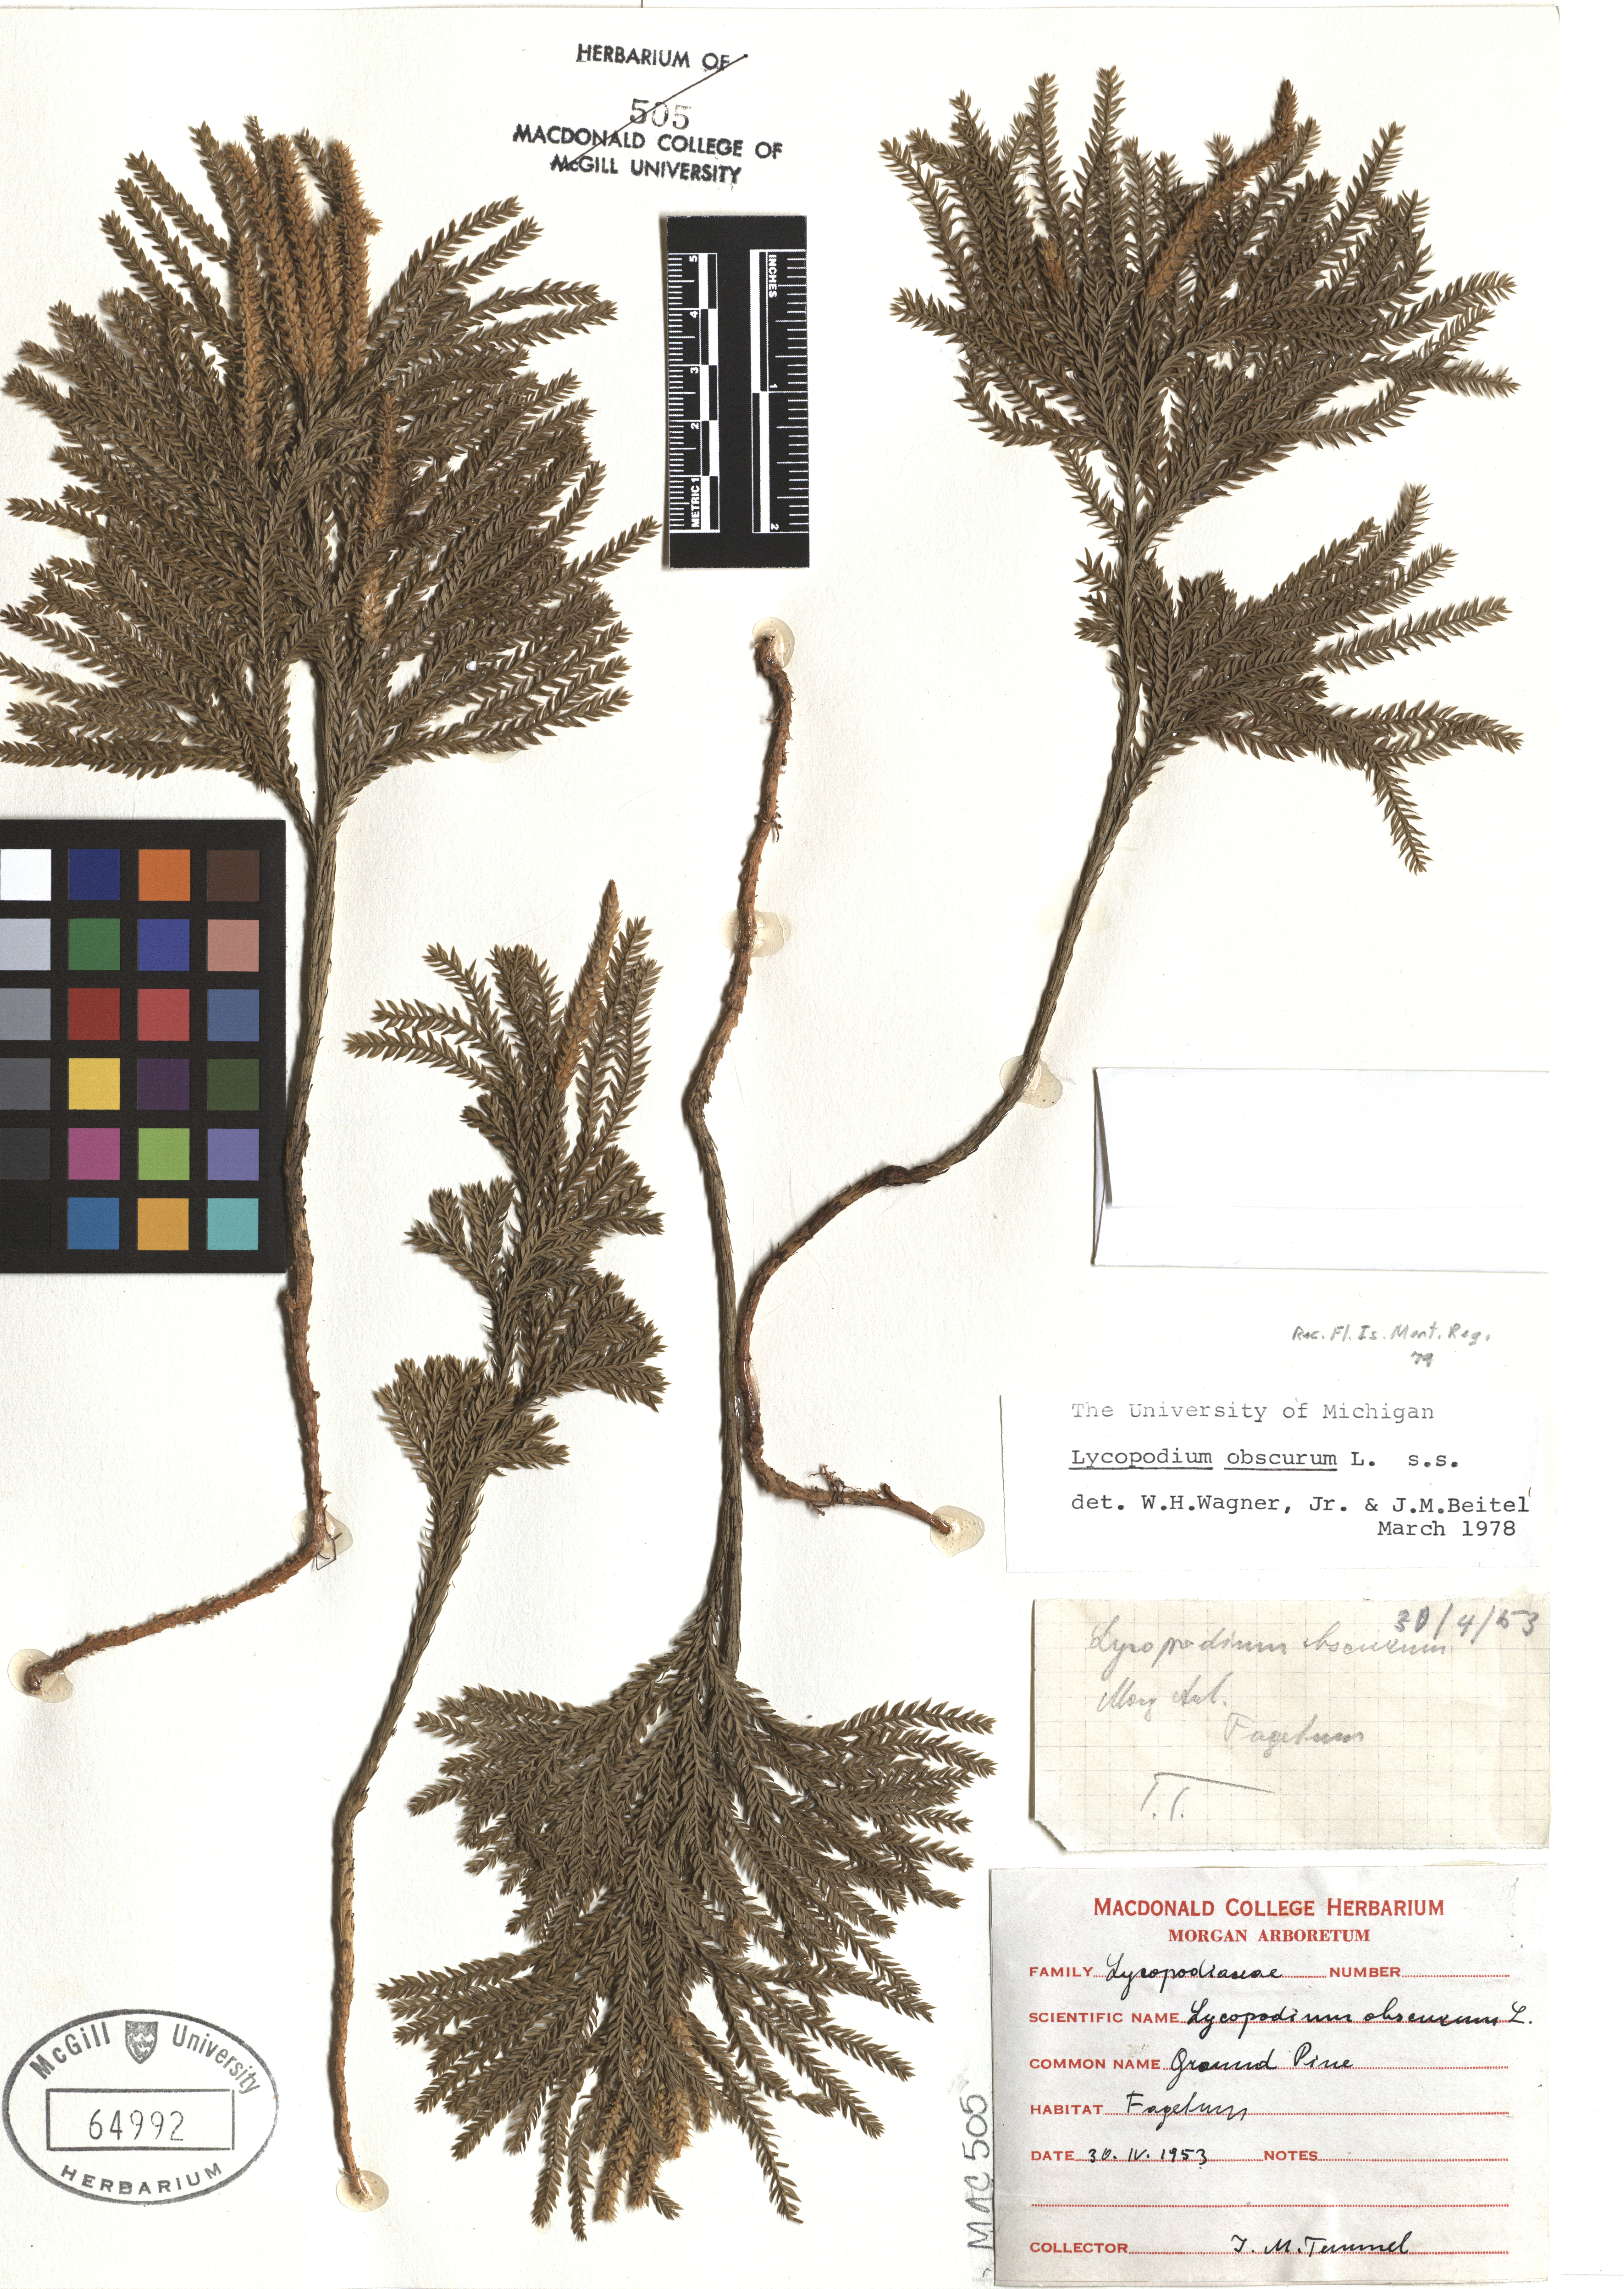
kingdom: Plantae
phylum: Tracheophyta
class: Lycopodiopsida
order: Lycopodiales
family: Lycopodiaceae
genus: Dendrolycopodium
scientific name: Dendrolycopodium obscurum
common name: Common ground-pine
